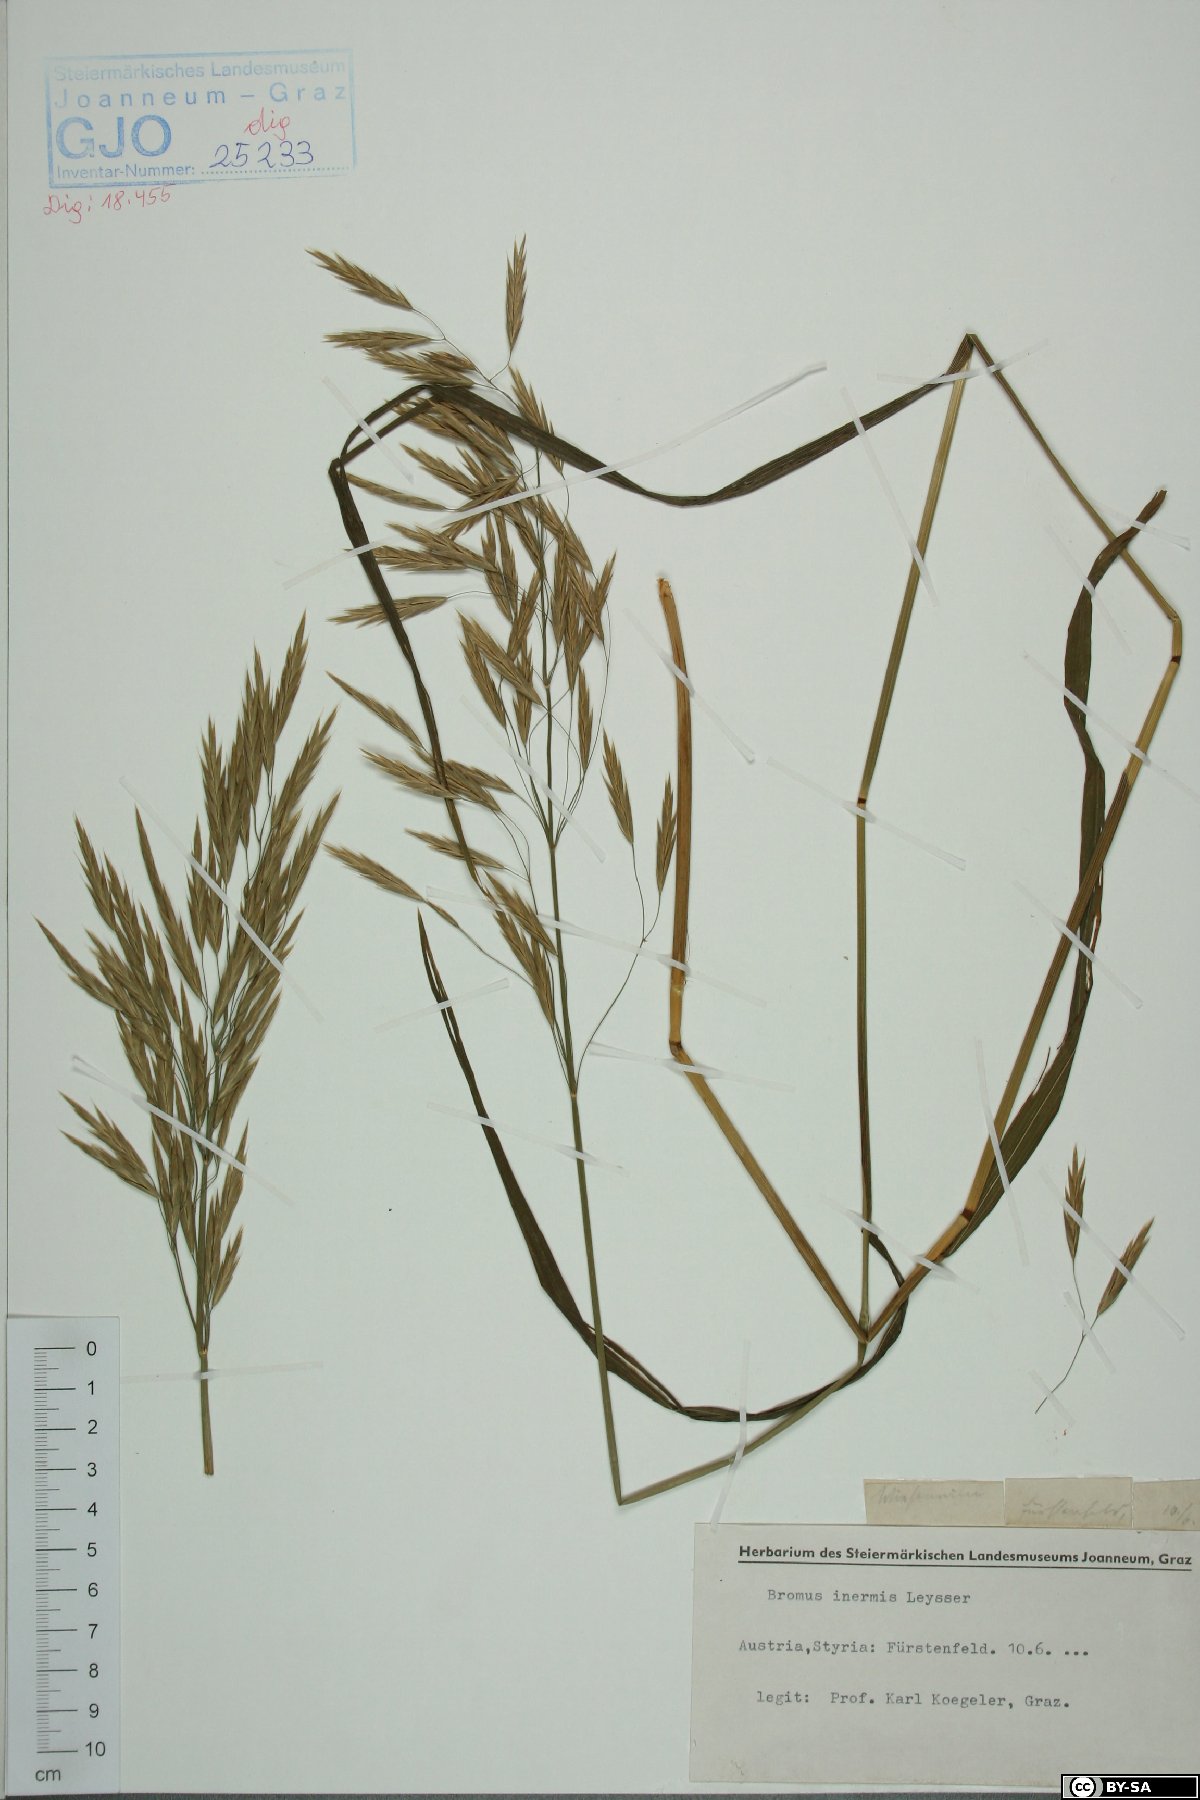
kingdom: Plantae
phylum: Tracheophyta
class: Liliopsida
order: Poales
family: Poaceae
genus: Bromus
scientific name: Bromus inermis
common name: Smooth brome
